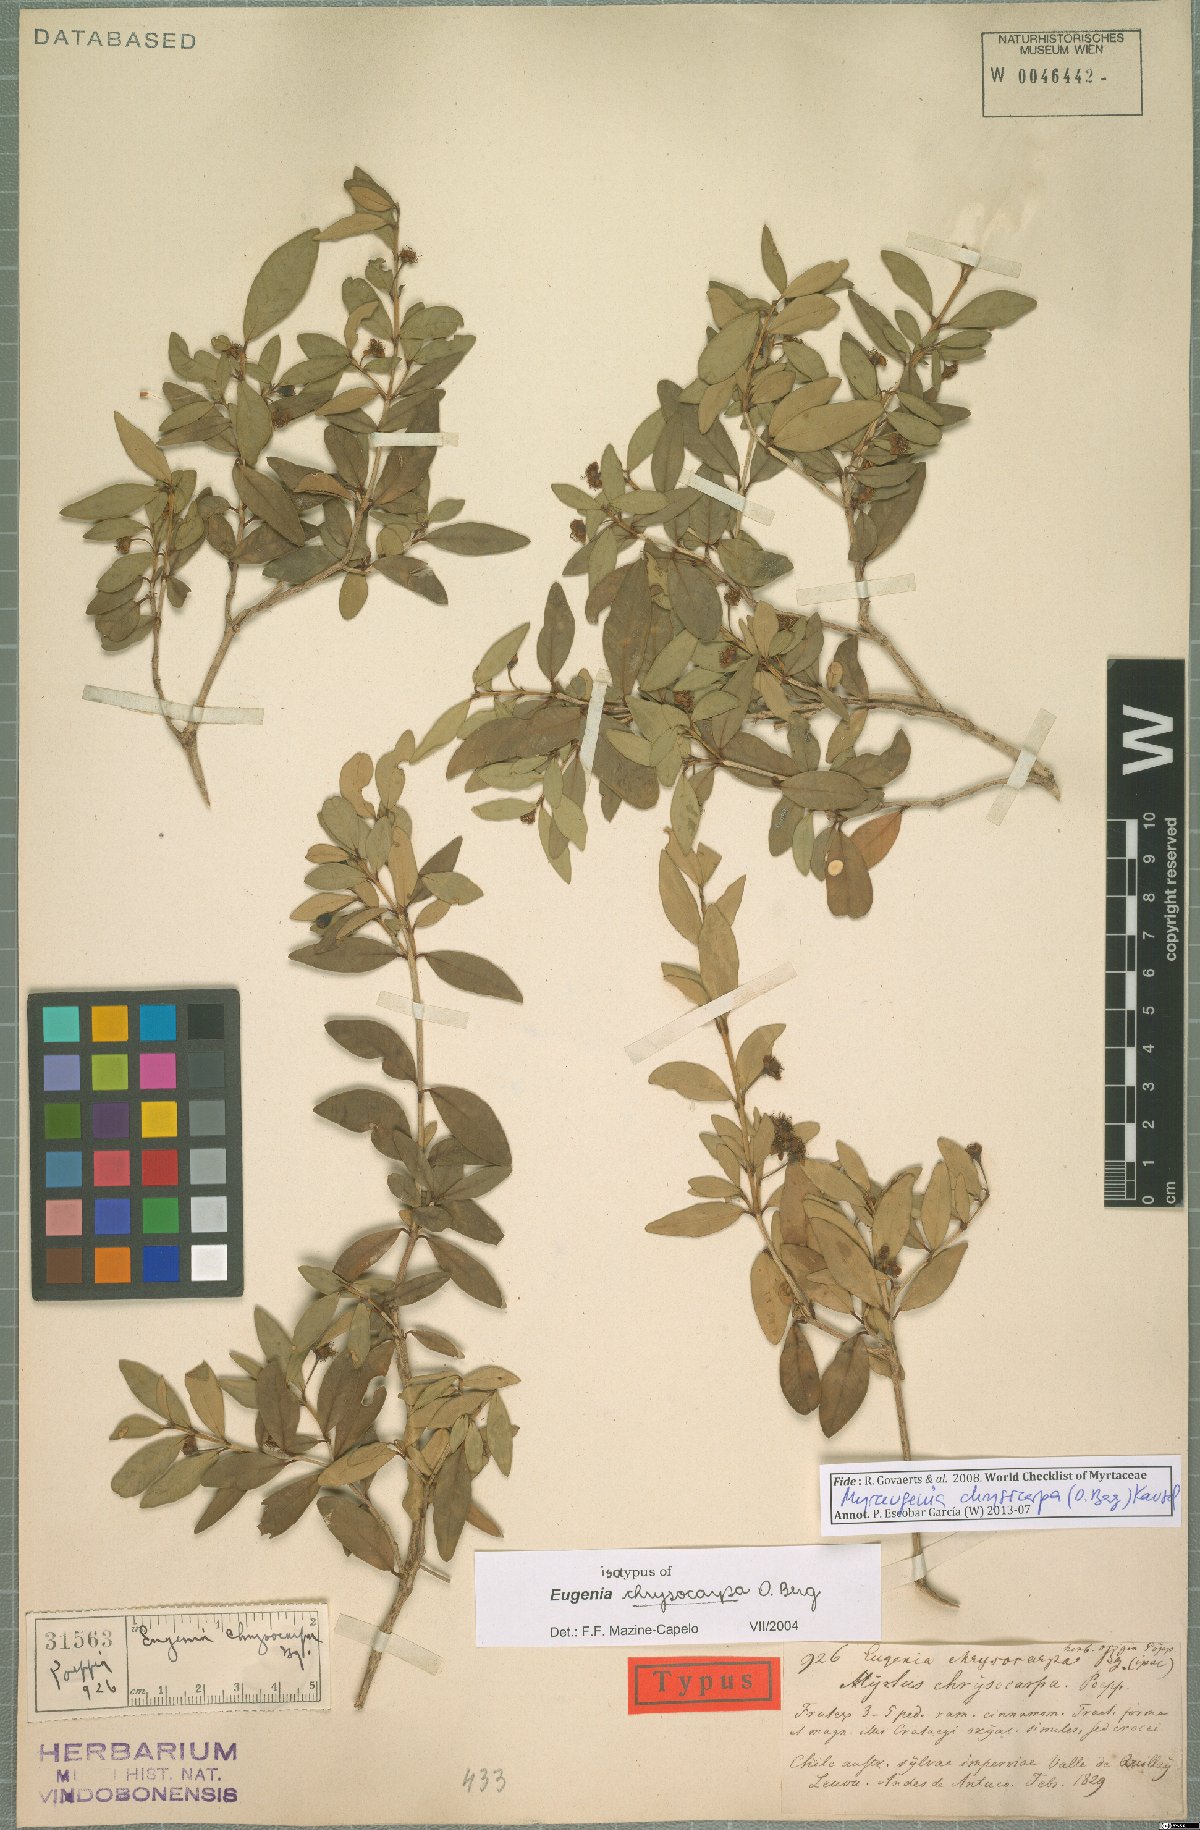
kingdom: Plantae
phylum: Tracheophyta
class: Magnoliopsida
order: Myrtales
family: Myrtaceae
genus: Myrceugenia
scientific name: Myrceugenia chrysocarpa
